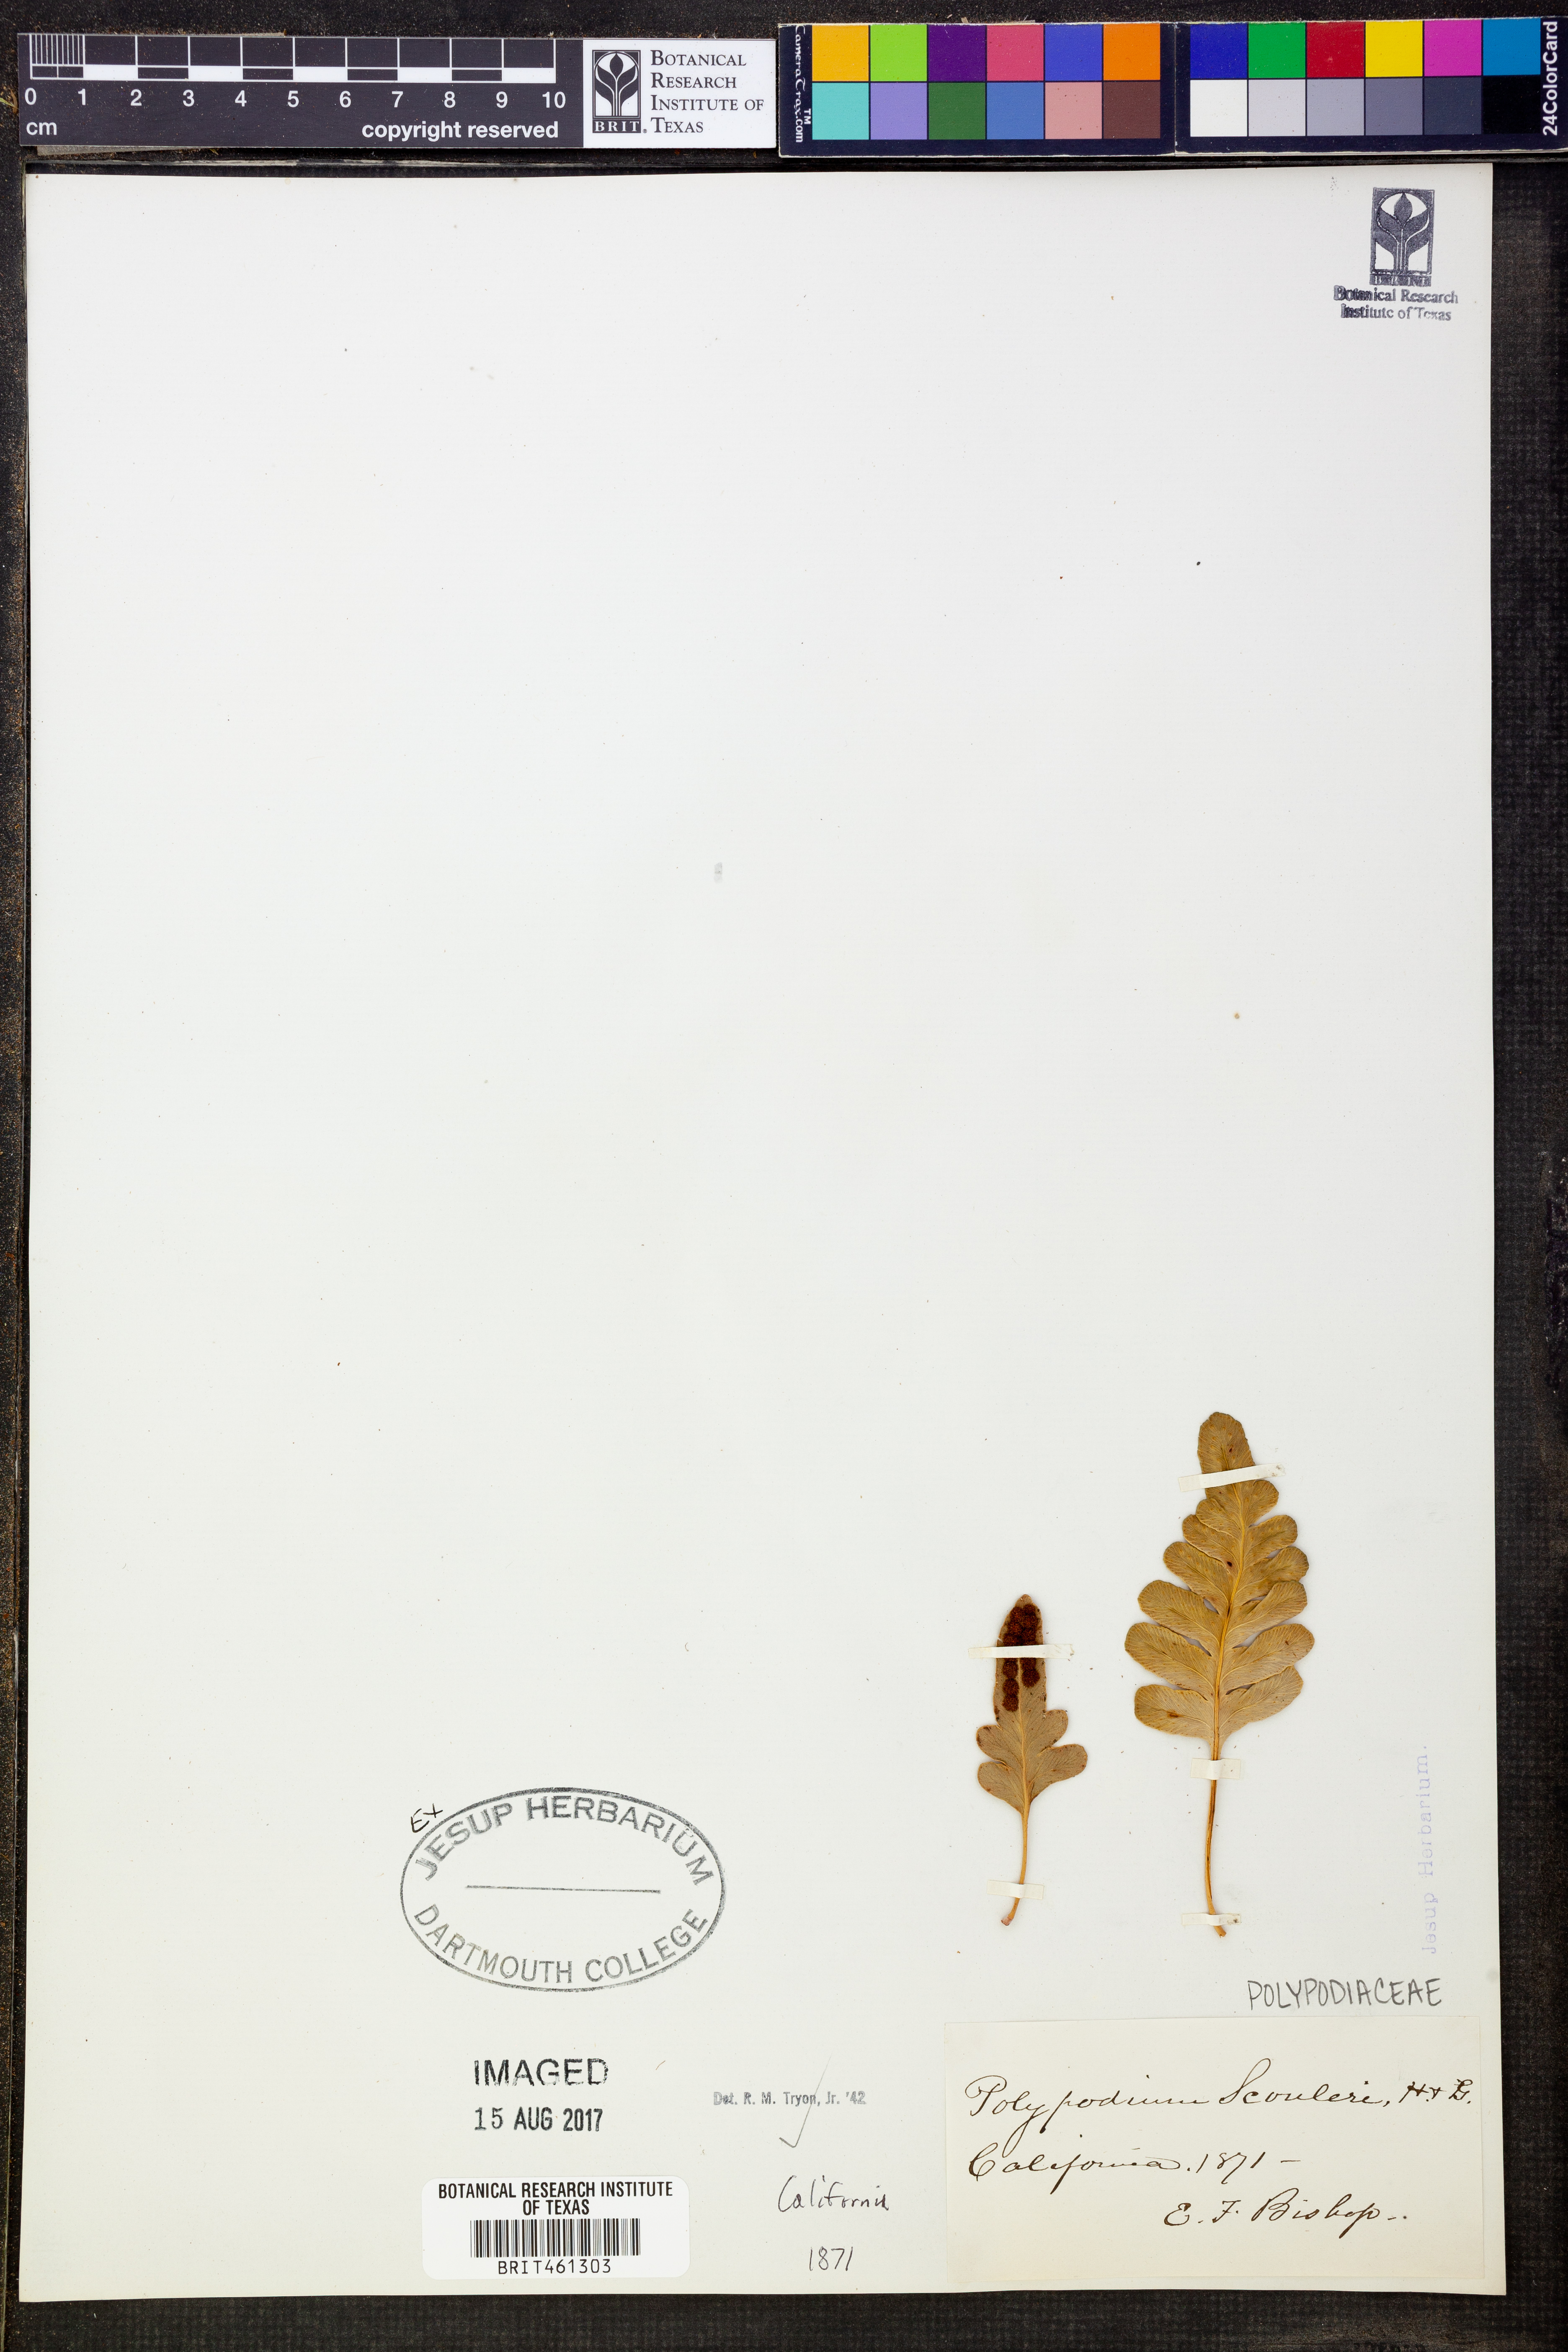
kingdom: Plantae
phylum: Tracheophyta
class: Polypodiopsida
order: Polypodiales
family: Polypodiaceae
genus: Polypodium
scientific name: Polypodium scouleri
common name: Scouler's polypody
